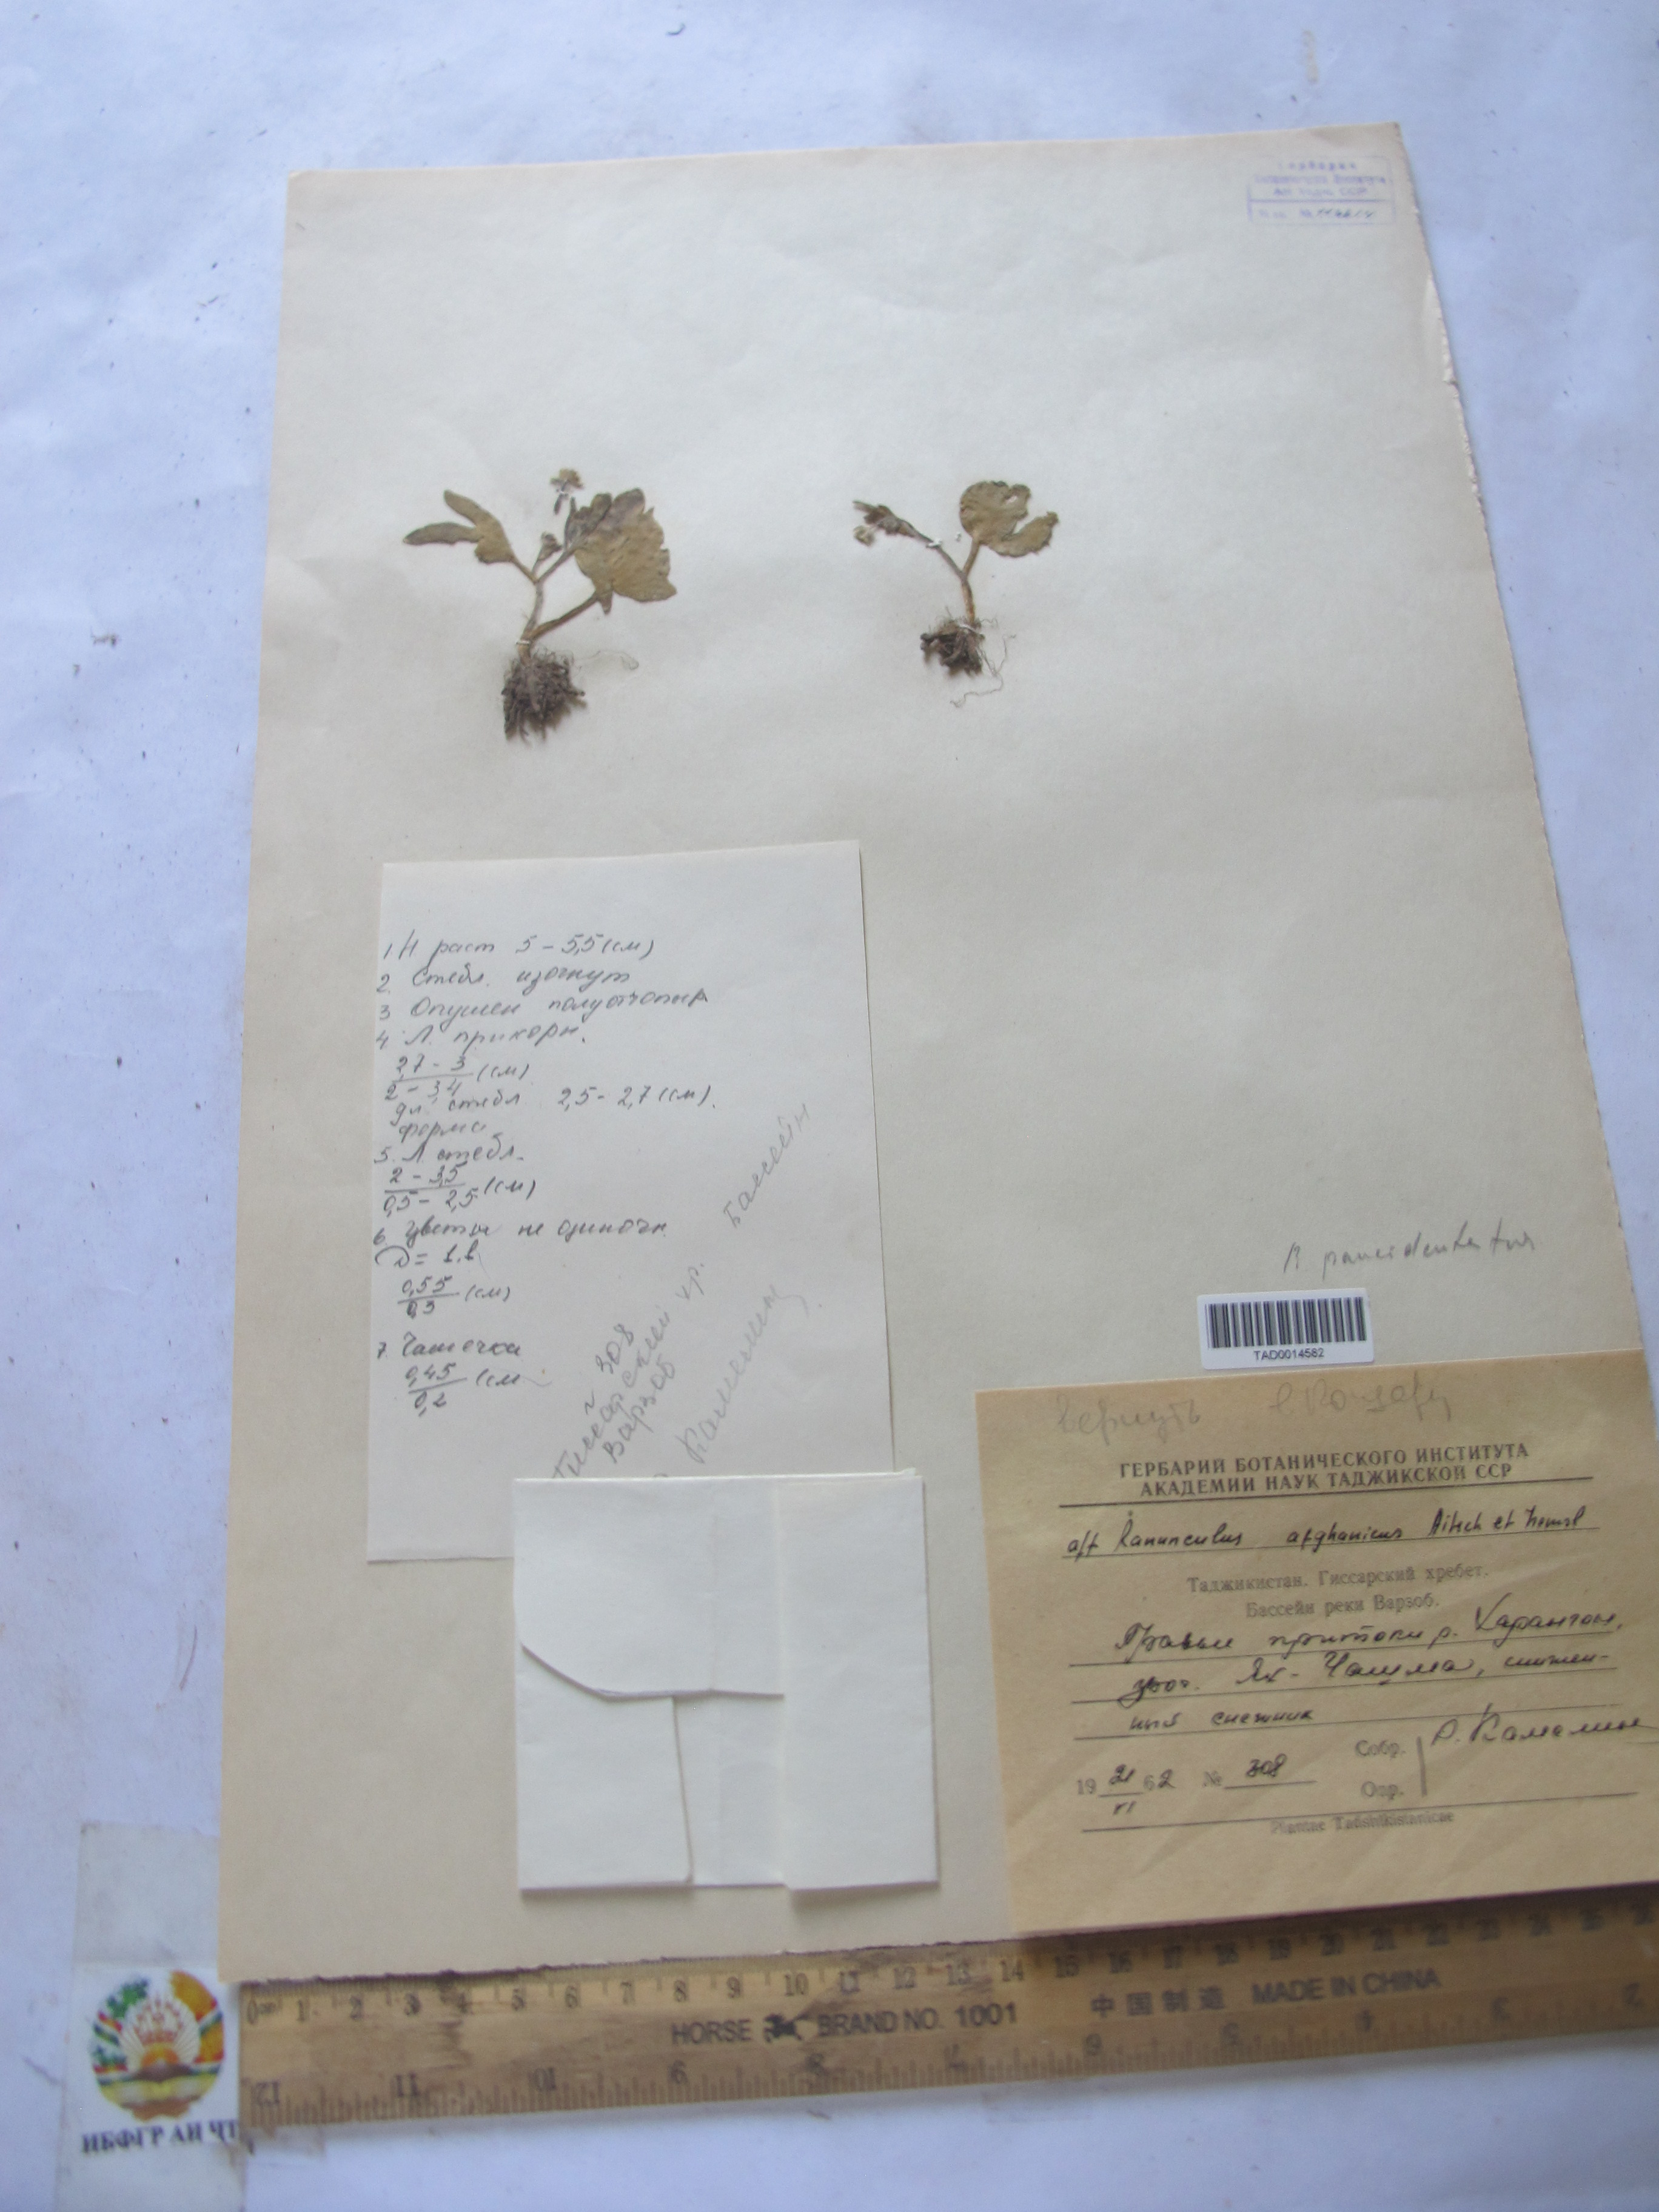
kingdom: Plantae
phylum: Tracheophyta
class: Magnoliopsida
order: Ranunculales
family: Ranunculaceae
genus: Ranunculus
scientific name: Ranunculus afghanicus
